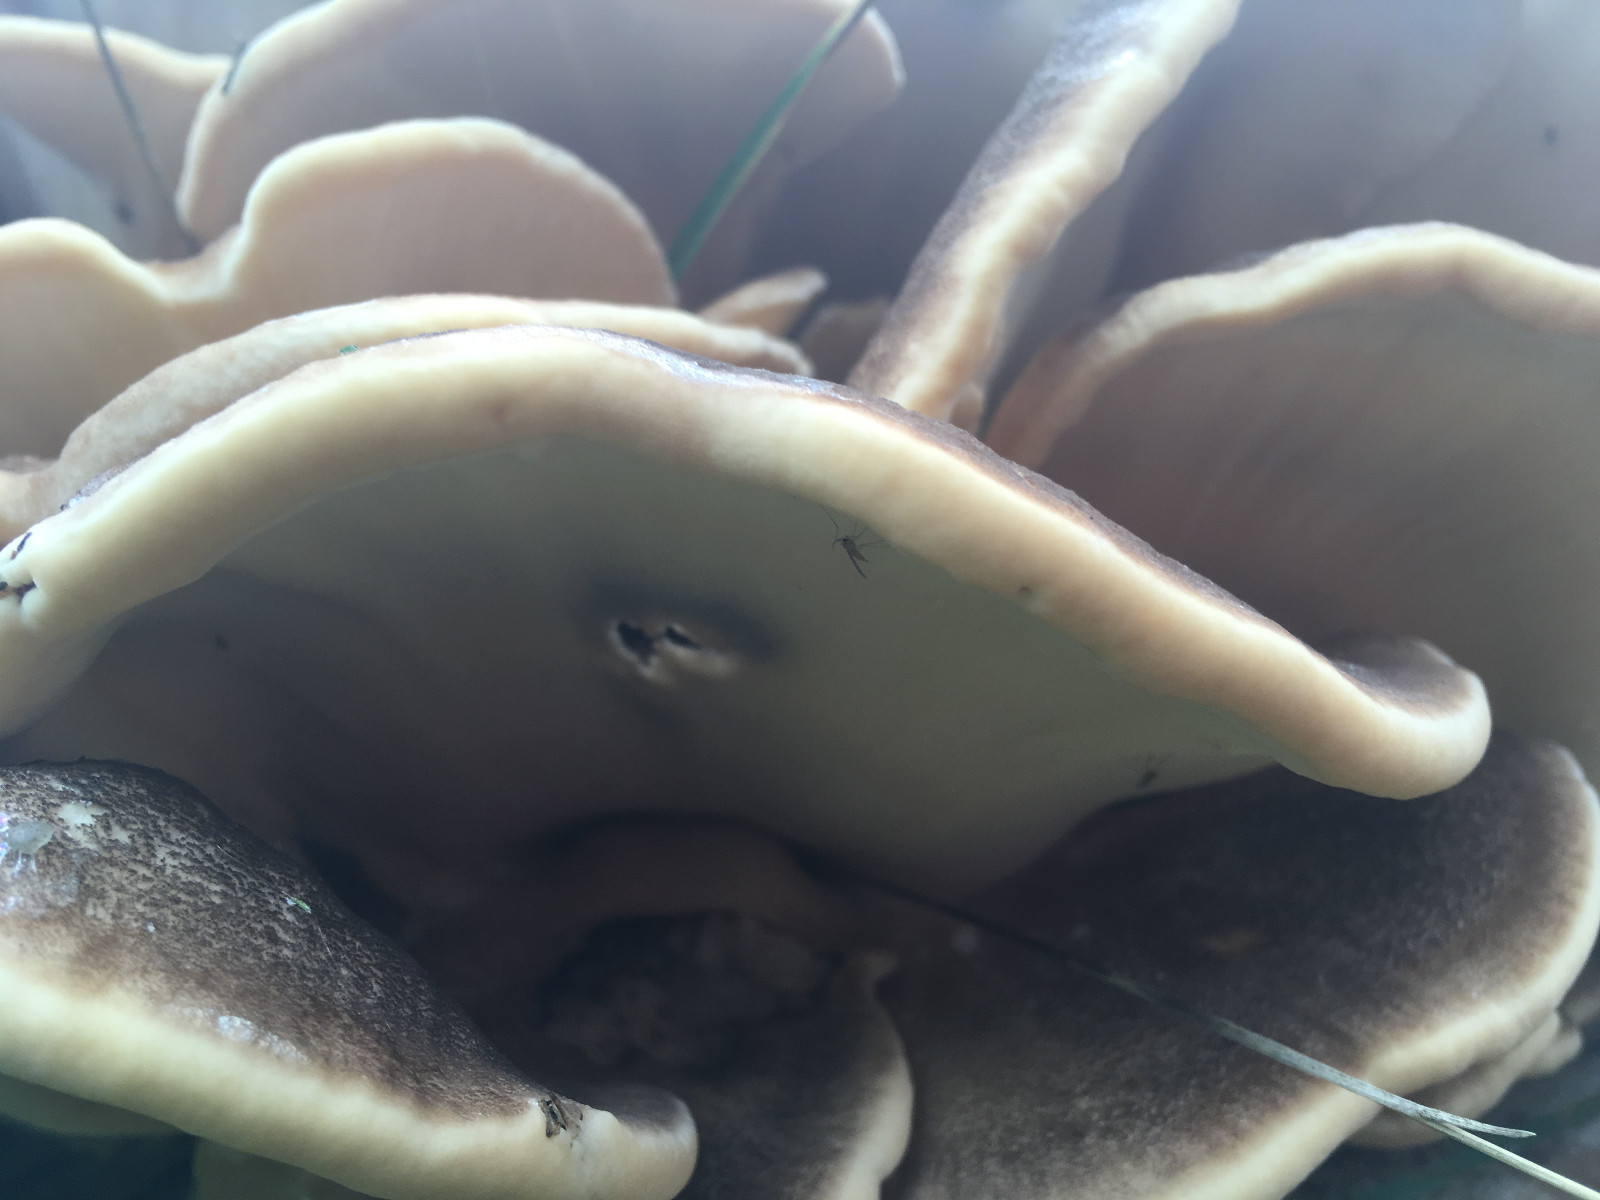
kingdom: Fungi
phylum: Basidiomycota
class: Agaricomycetes
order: Polyporales
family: Meripilaceae
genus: Meripilus
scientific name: Meripilus giganteus
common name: kæmpeporesvamp
